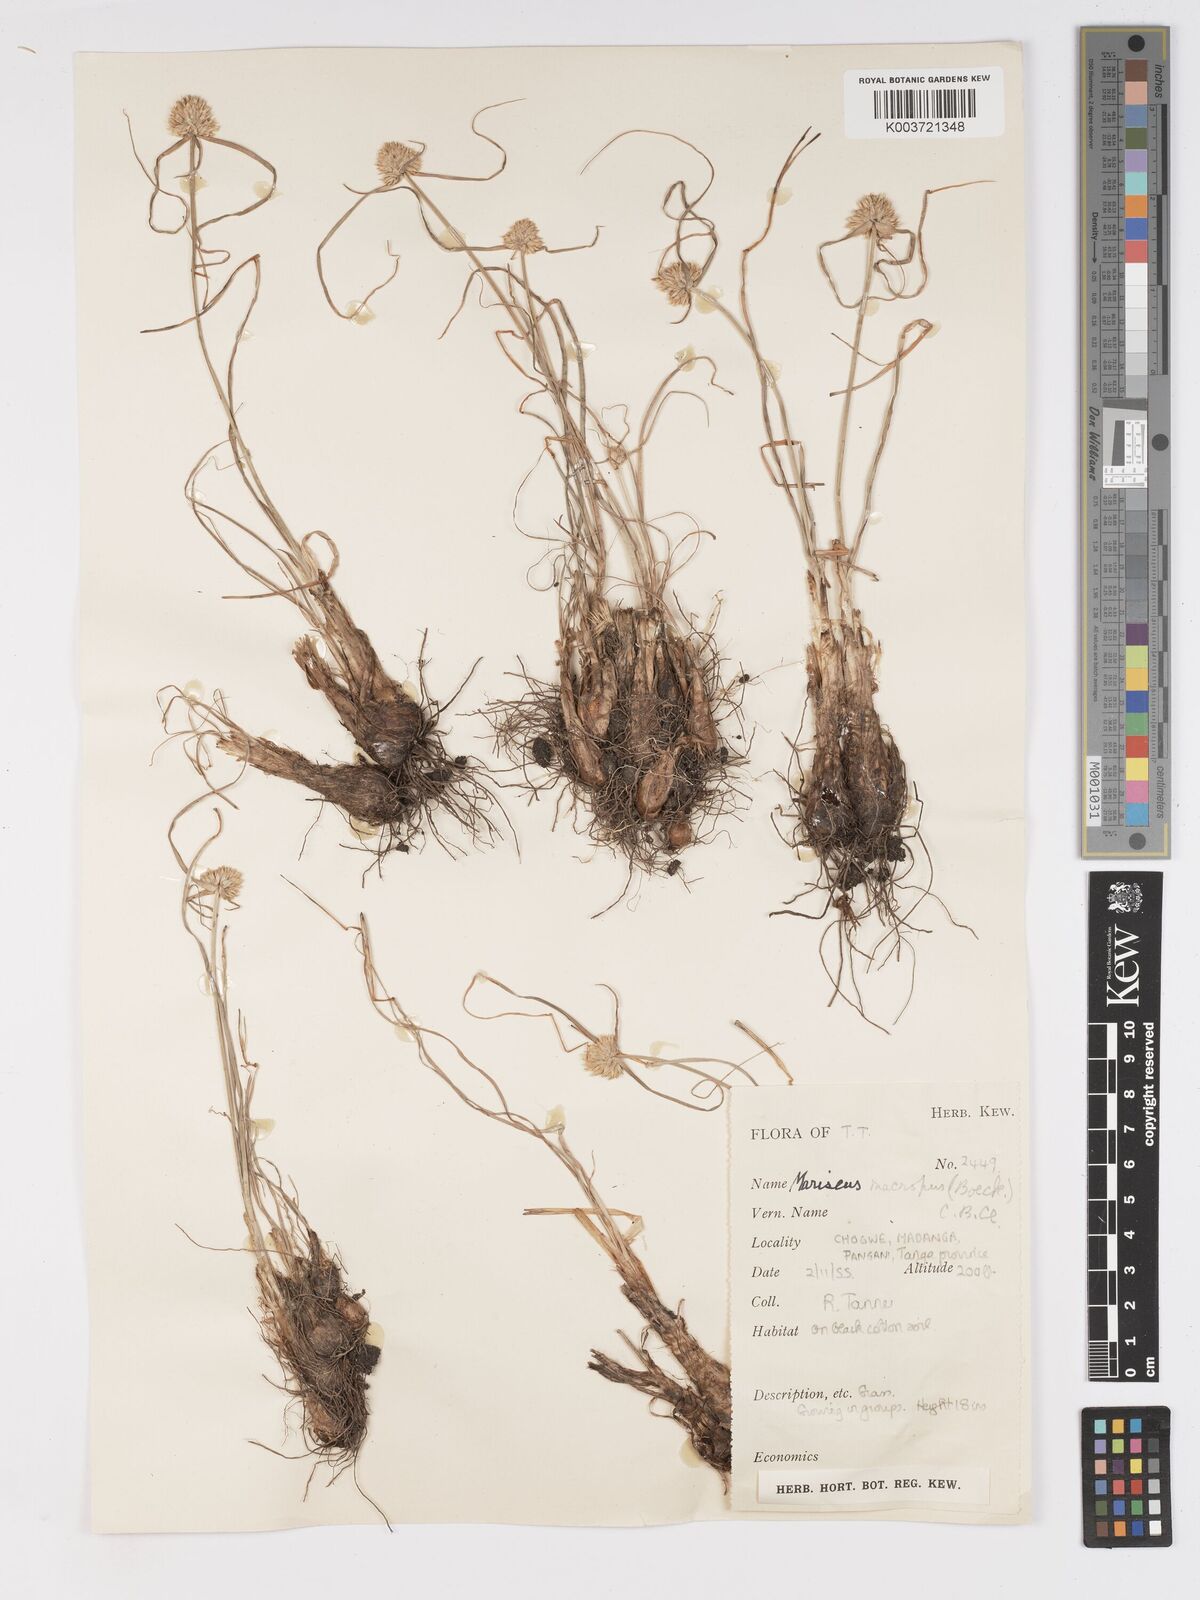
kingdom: Plantae
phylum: Tracheophyta
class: Liliopsida
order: Poales
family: Cyperaceae
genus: Cyperus
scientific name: Cyperus mollipes
